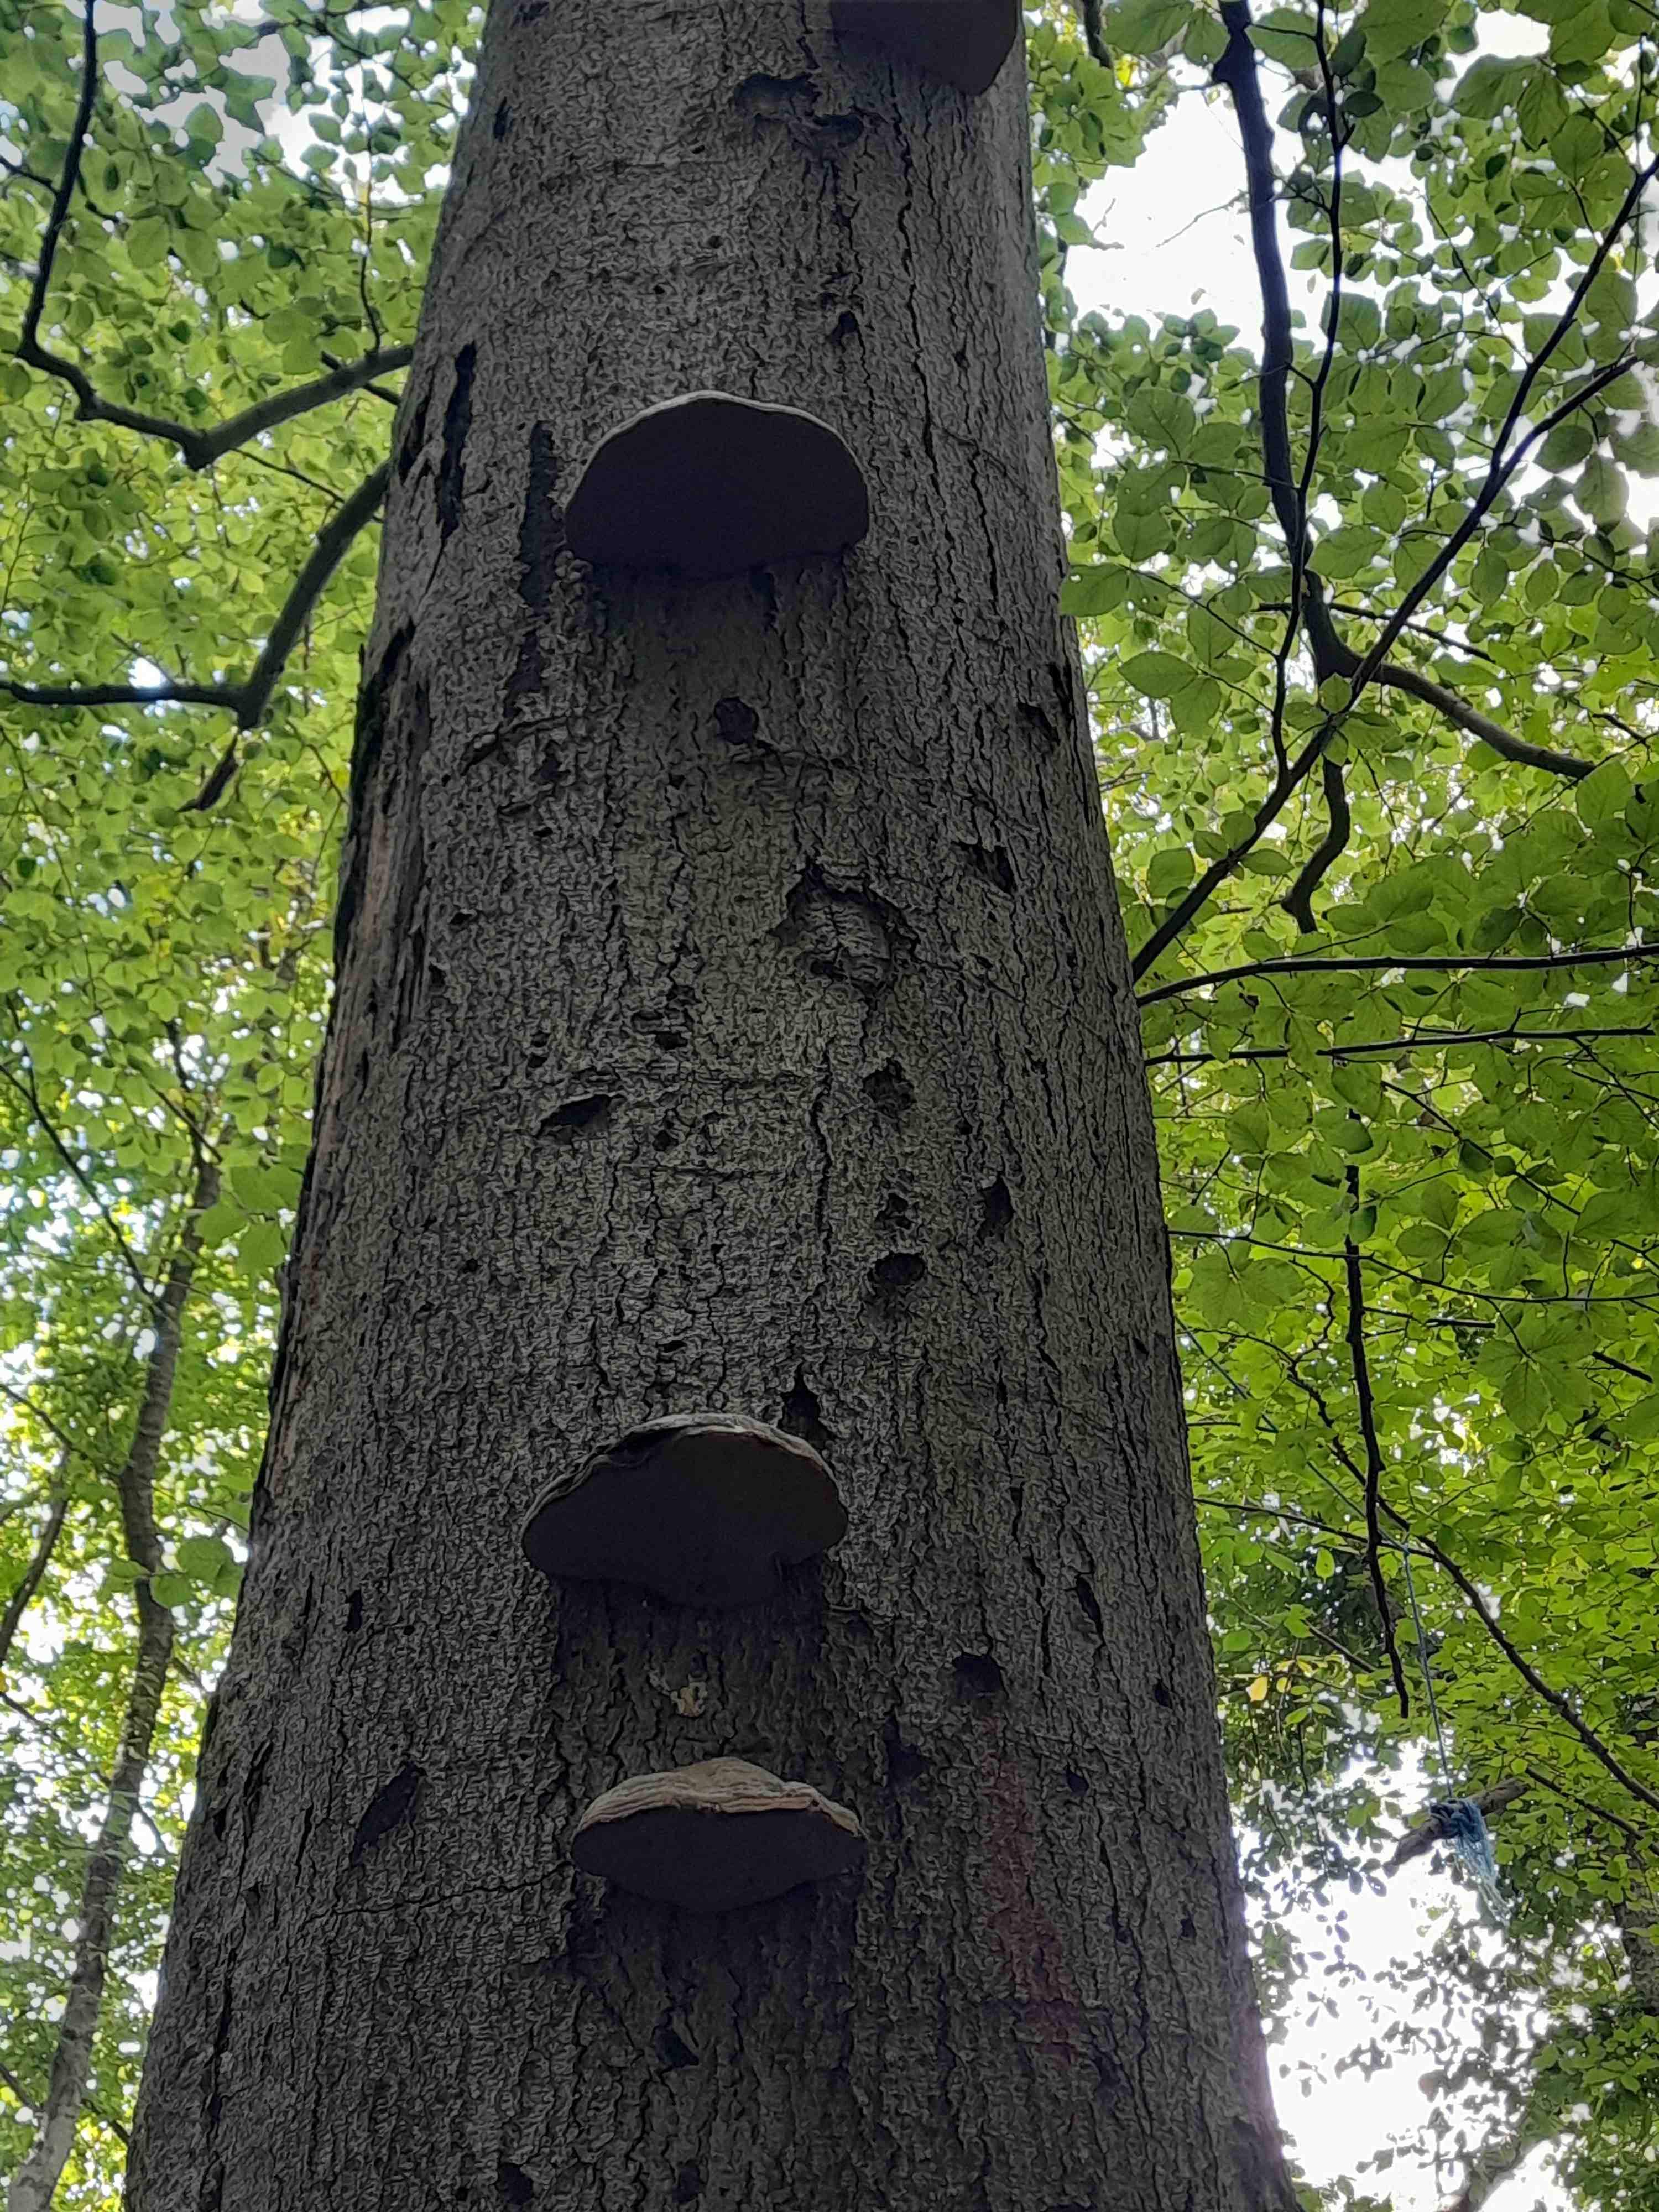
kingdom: Fungi
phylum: Basidiomycota
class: Agaricomycetes
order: Polyporales
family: Polyporaceae
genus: Fomes
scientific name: Fomes fomentarius
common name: tøndersvamp
